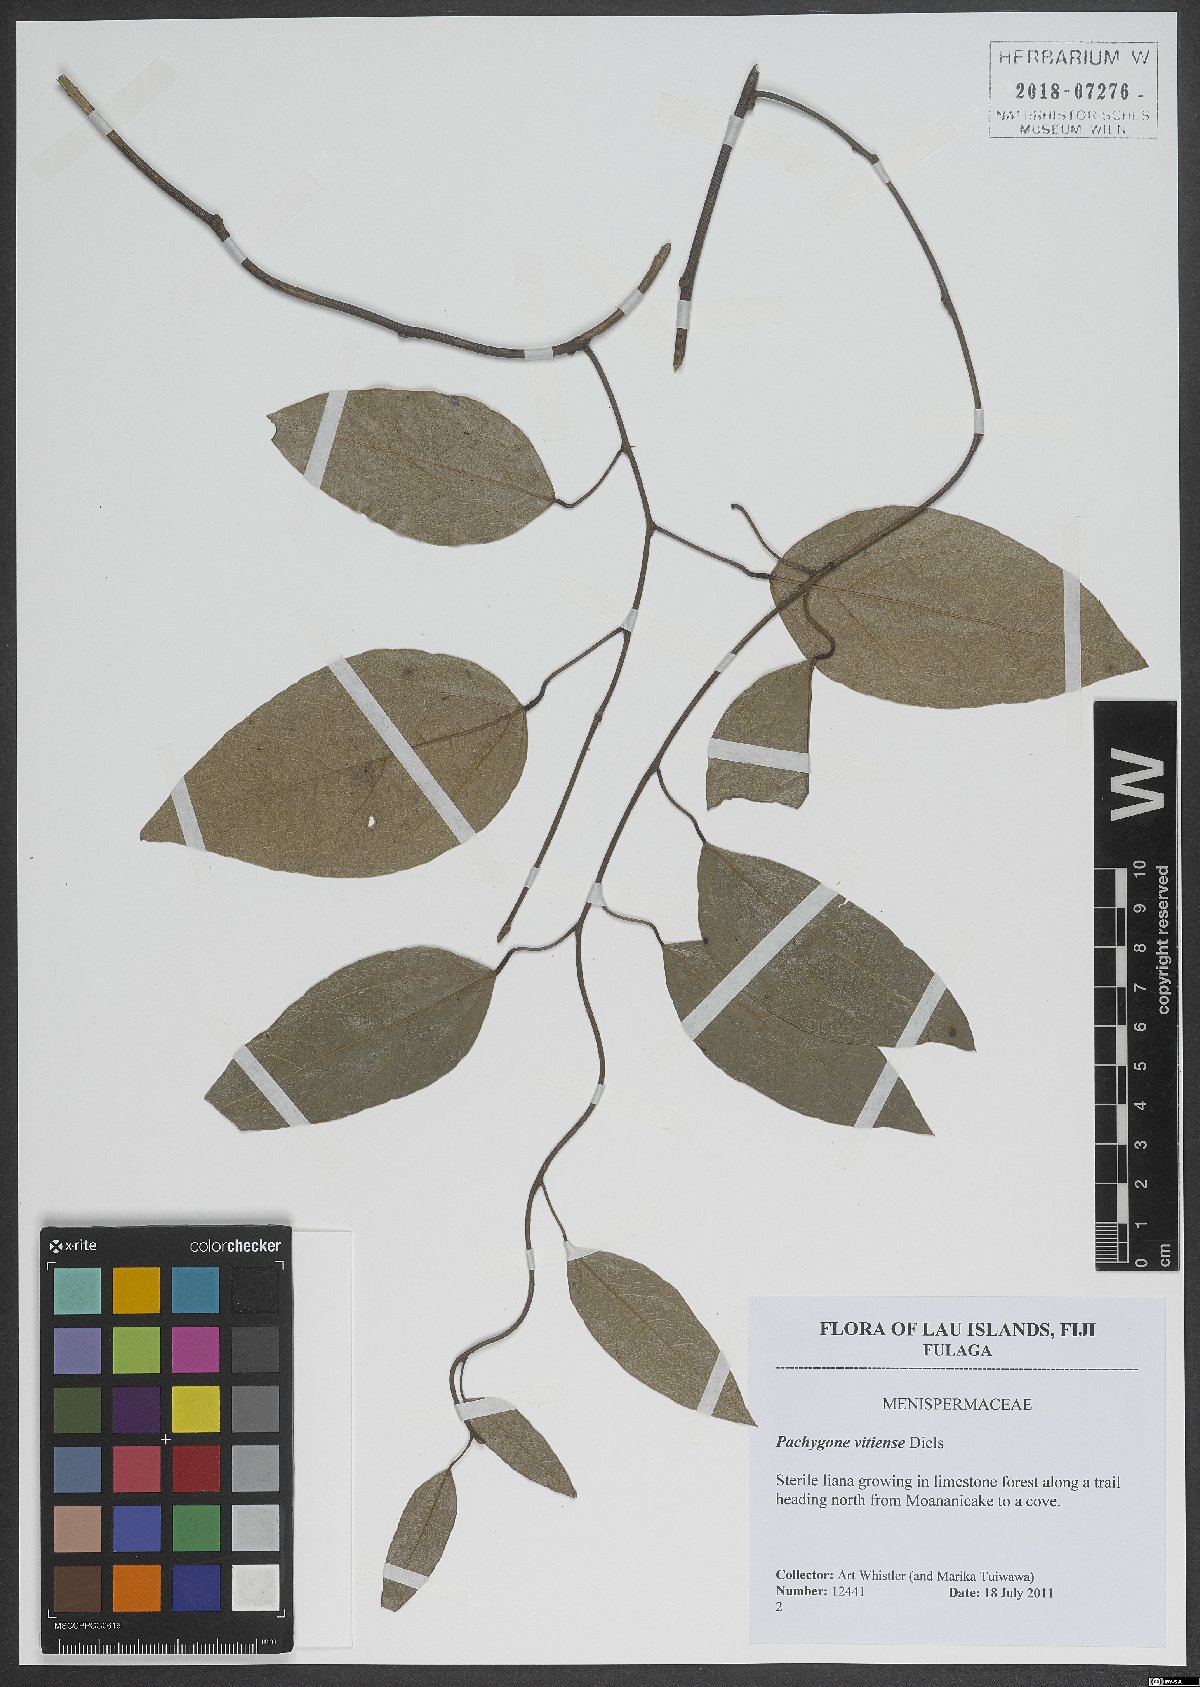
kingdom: Plantae
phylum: Tracheophyta
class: Magnoliopsida
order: Ranunculales
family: Menispermaceae
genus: Pachygone
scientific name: Pachygone vitiensis
